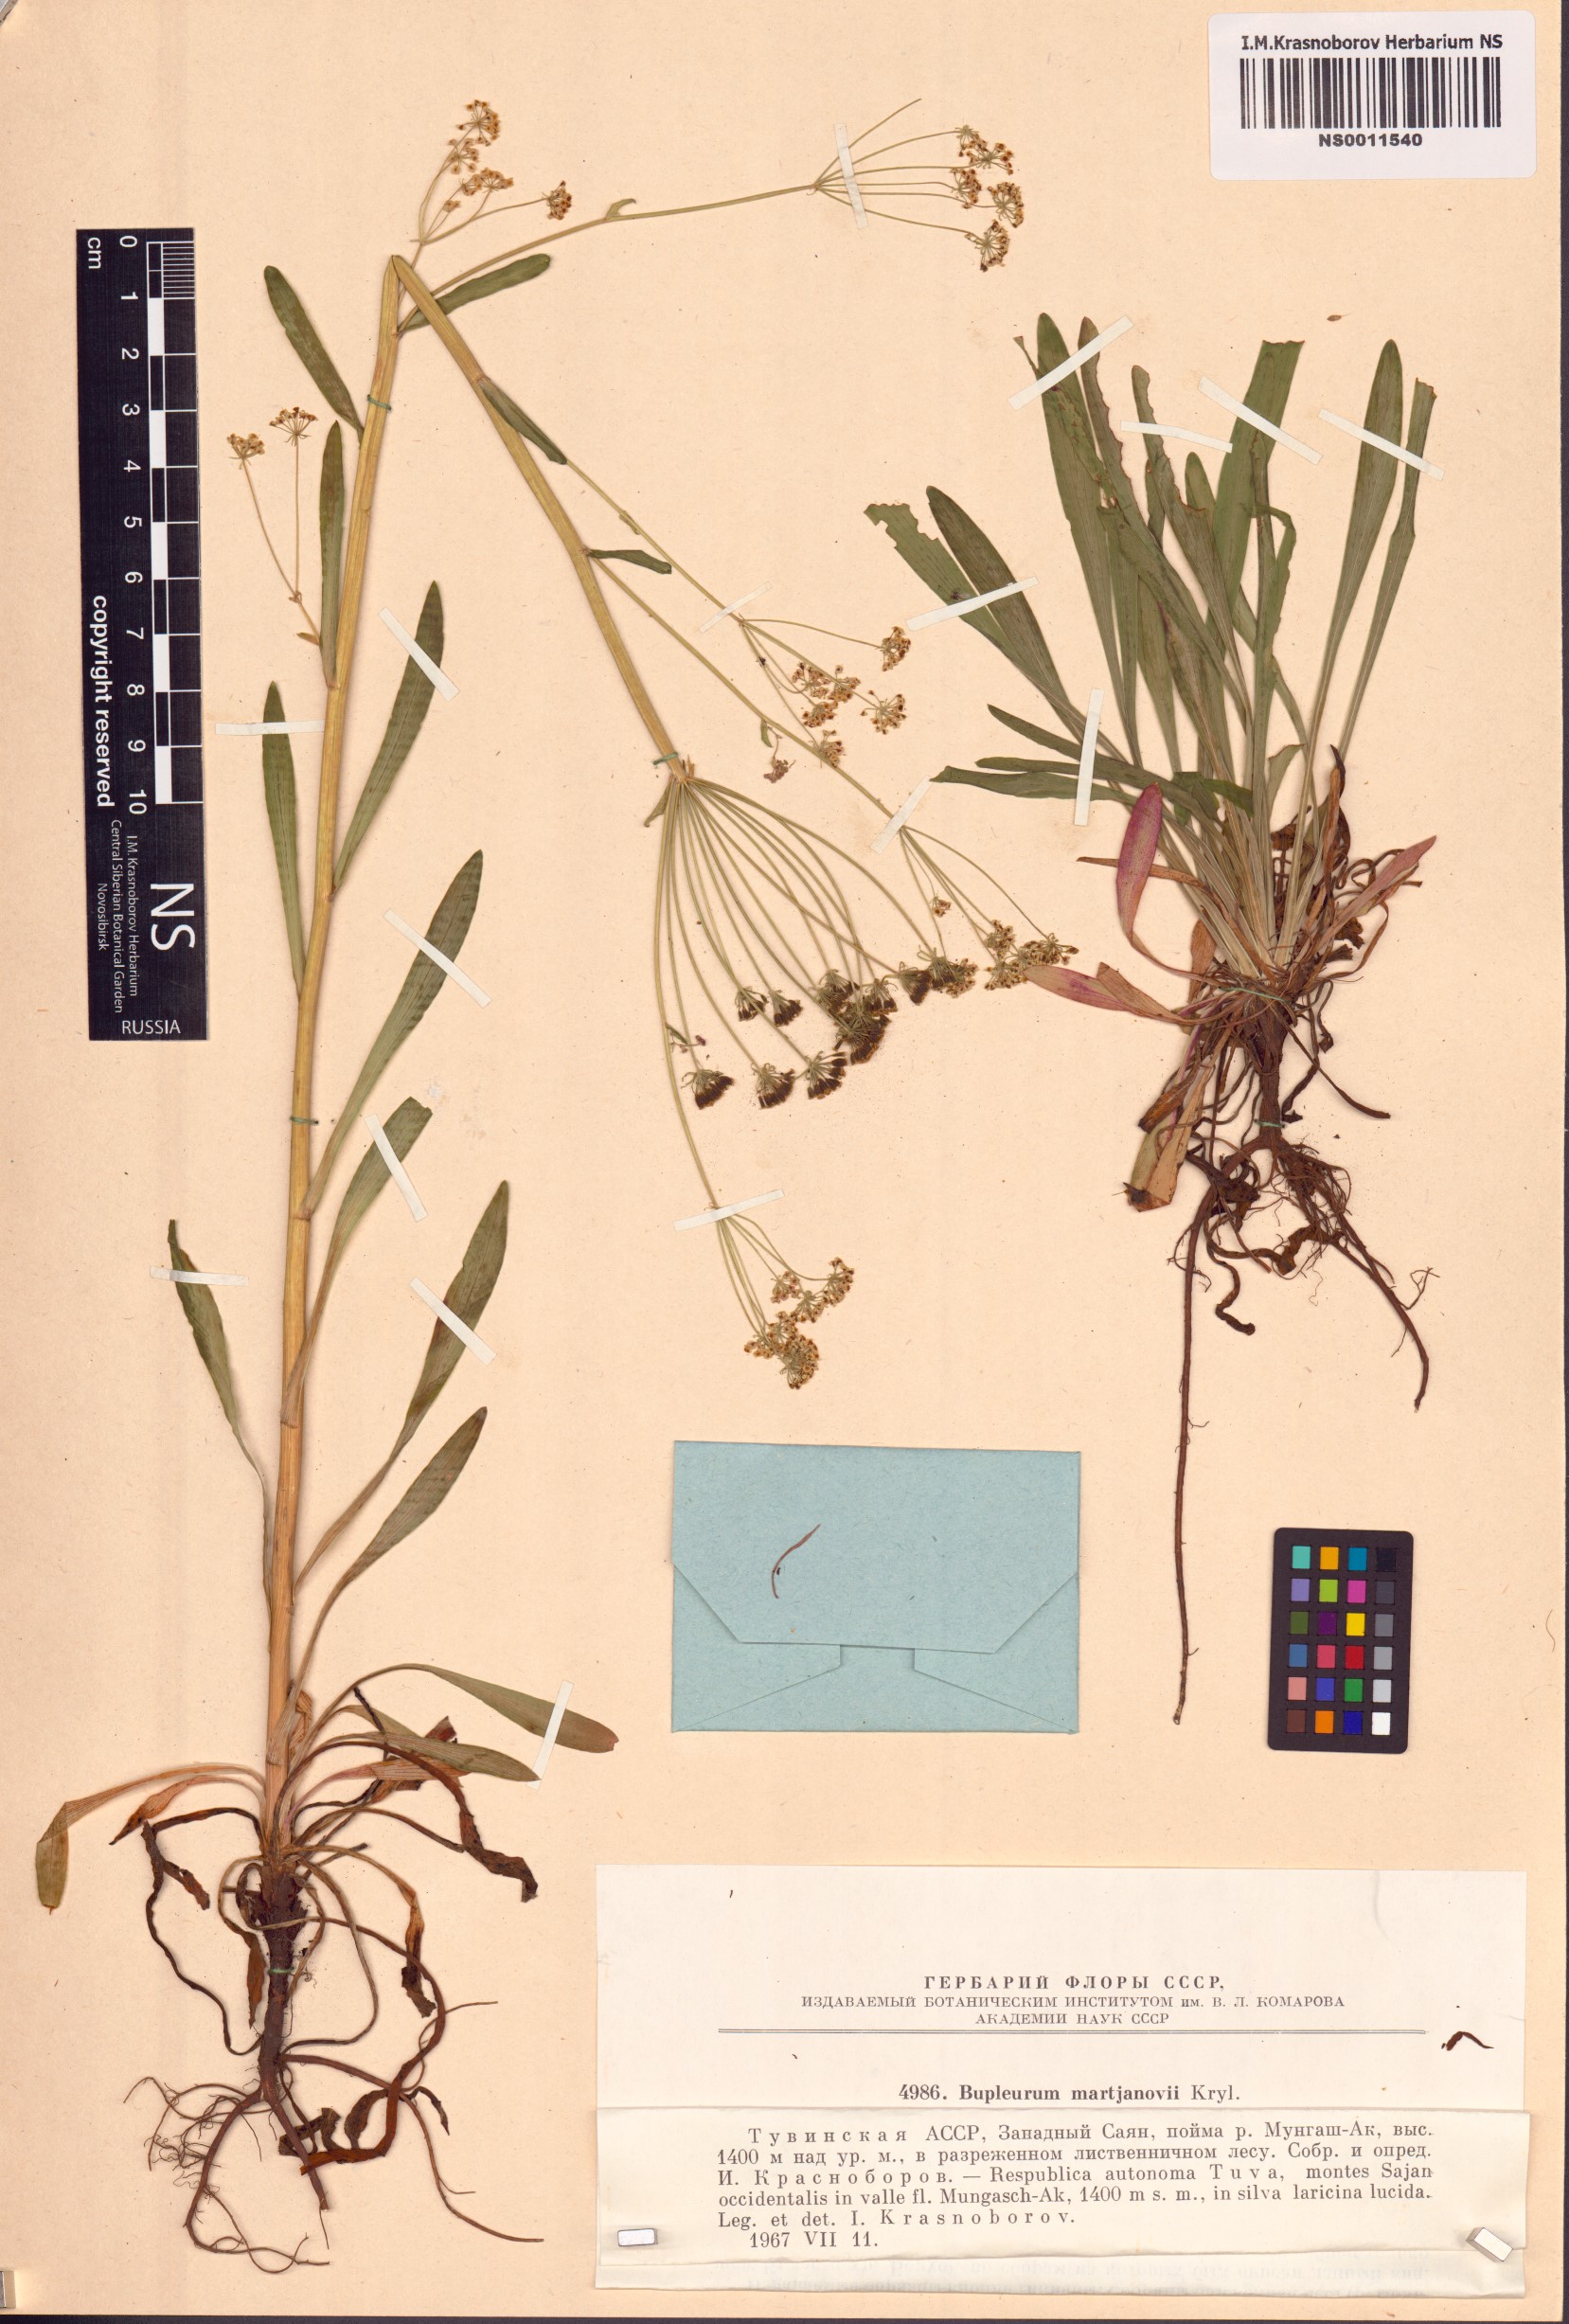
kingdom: Plantae
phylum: Tracheophyta
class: Magnoliopsida
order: Apiales
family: Apiaceae
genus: Bupleurum
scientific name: Bupleurum martjanovii
